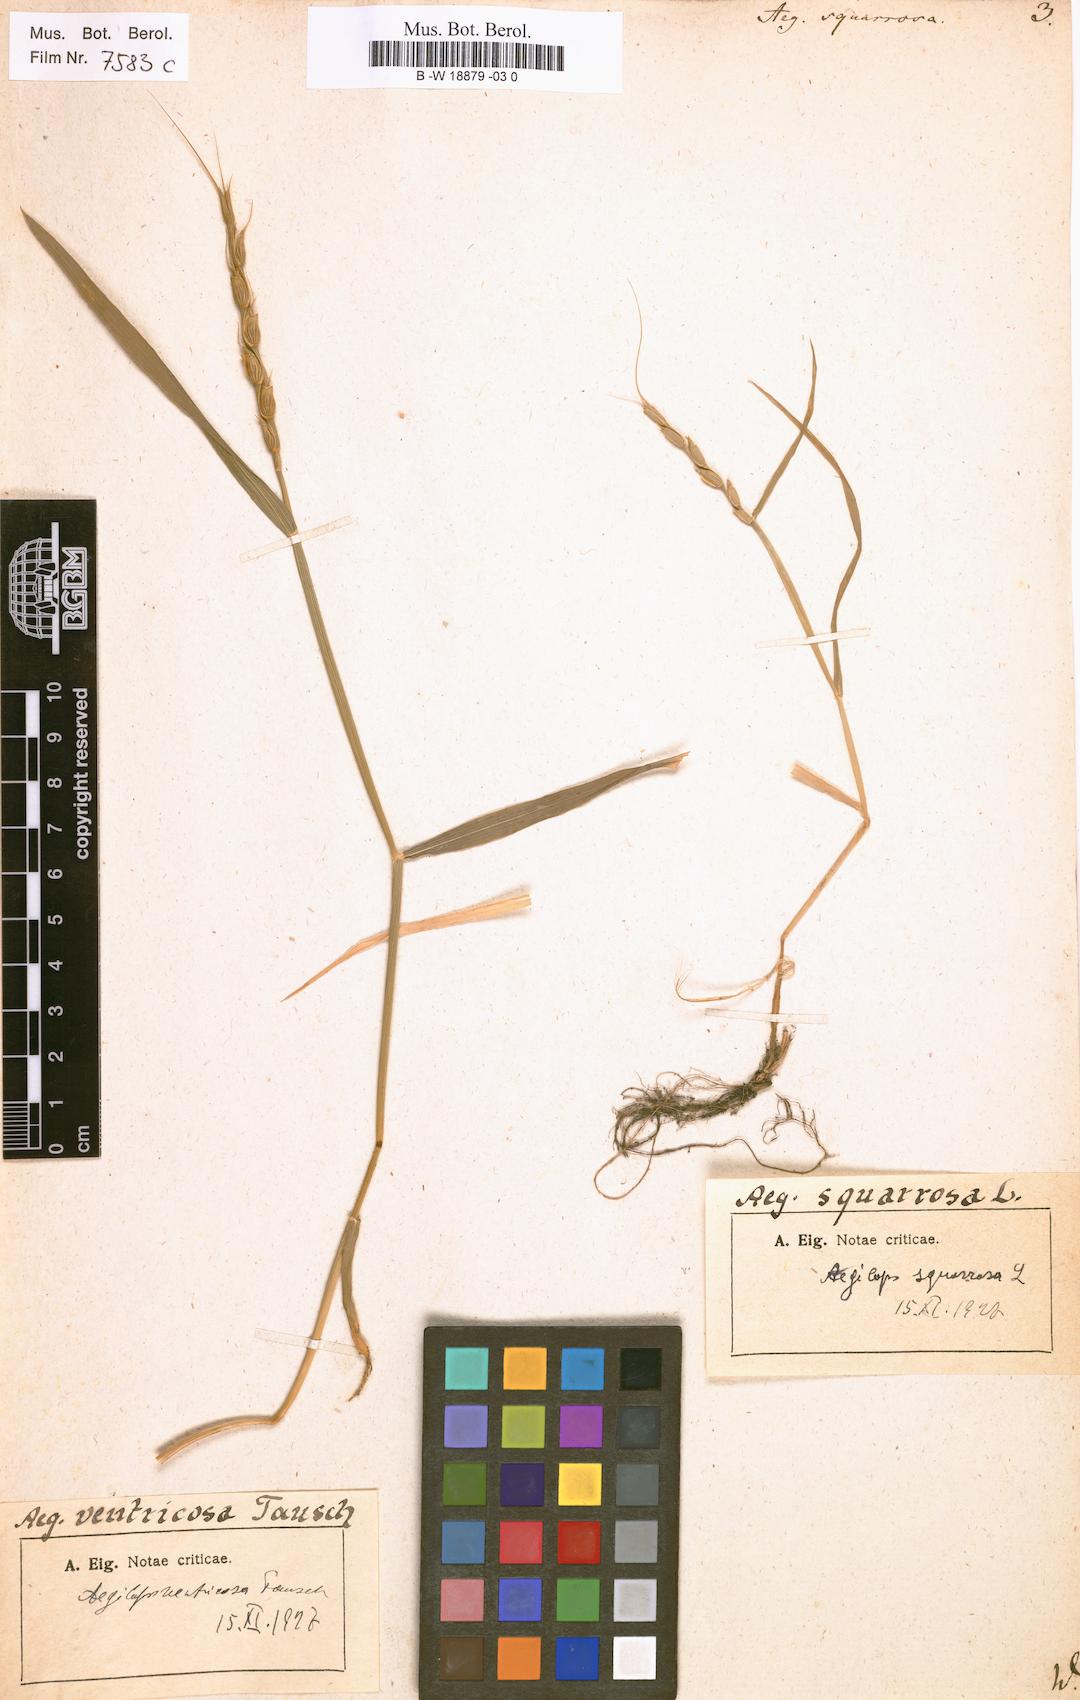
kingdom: Plantae
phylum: Tracheophyta
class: Liliopsida
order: Poales
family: Poaceae
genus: Aegilops
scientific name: Aegilops triuncialis
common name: Barb goat grass
